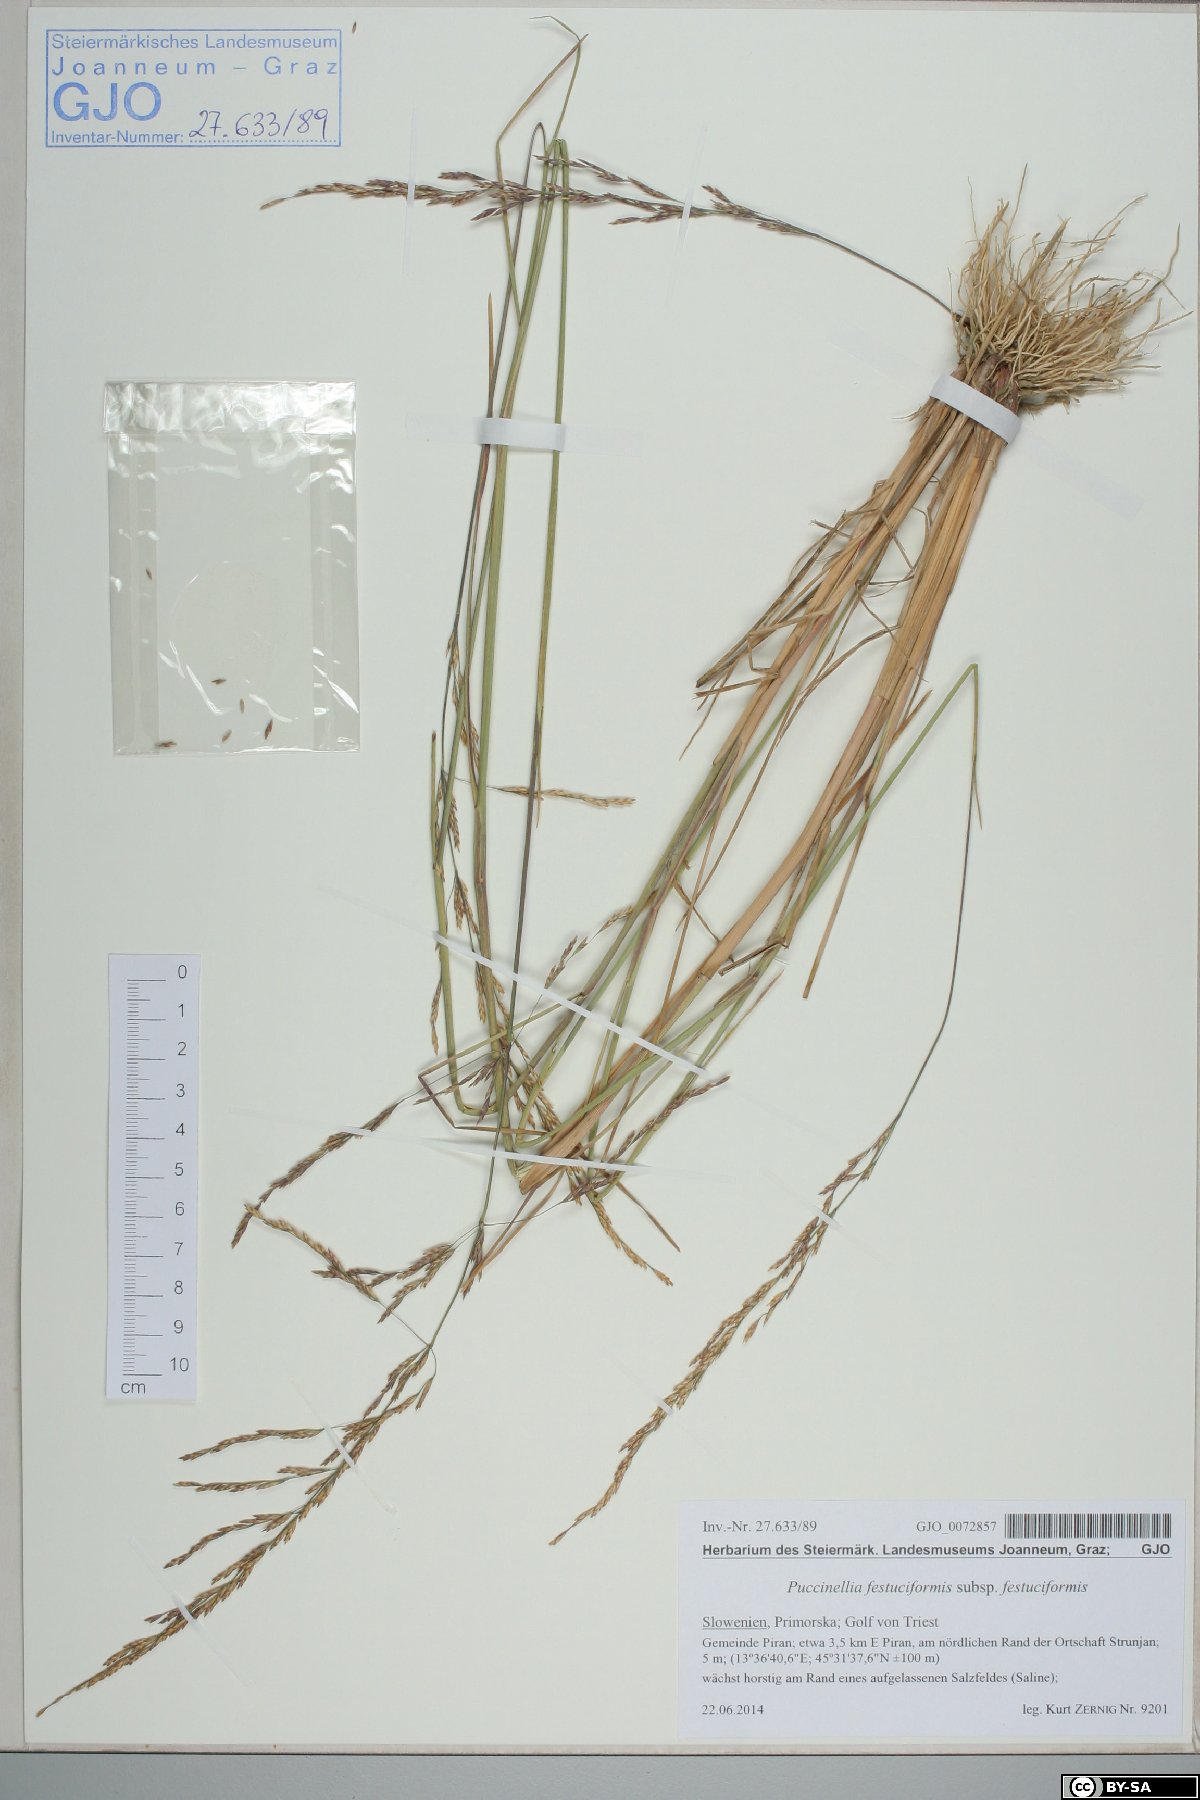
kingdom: Plantae
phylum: Tracheophyta
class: Liliopsida
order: Poales
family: Poaceae
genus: Puccinellia
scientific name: Puccinellia festuciformis
